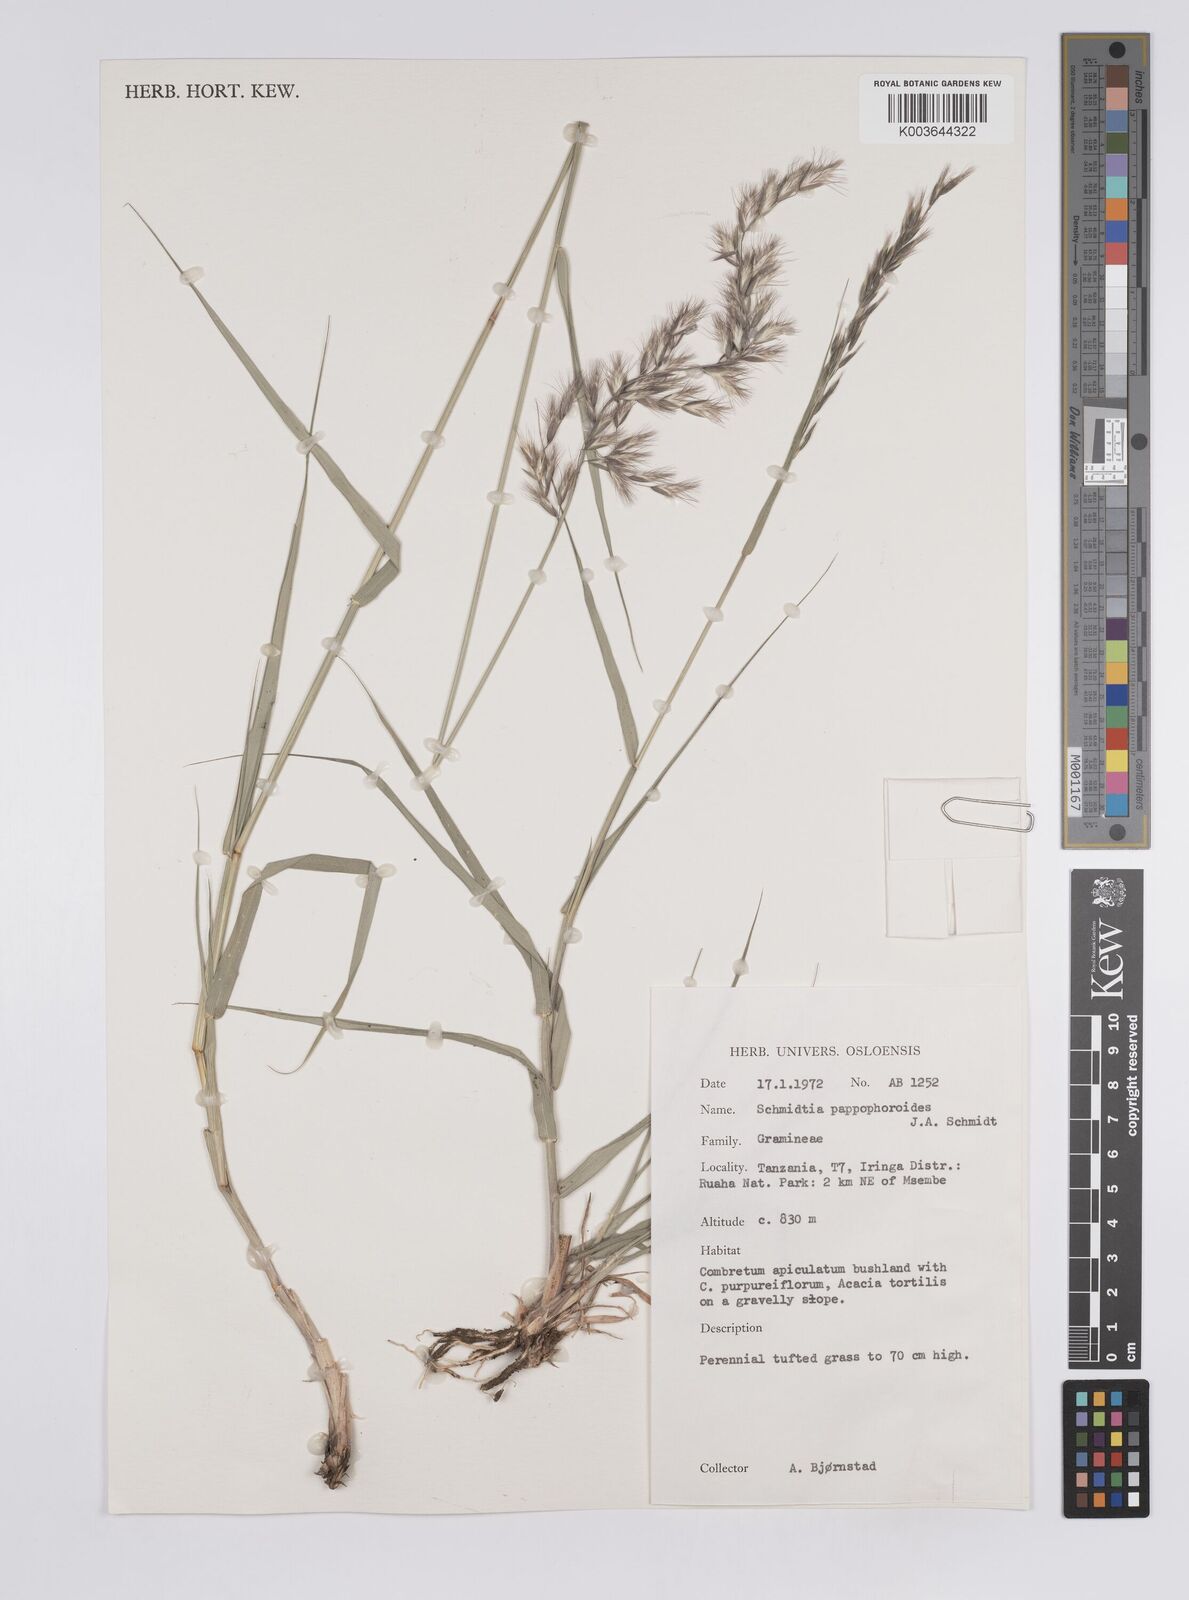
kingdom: Plantae
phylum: Tracheophyta
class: Liliopsida
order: Poales
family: Poaceae
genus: Schmidtia
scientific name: Schmidtia pappophoroides
